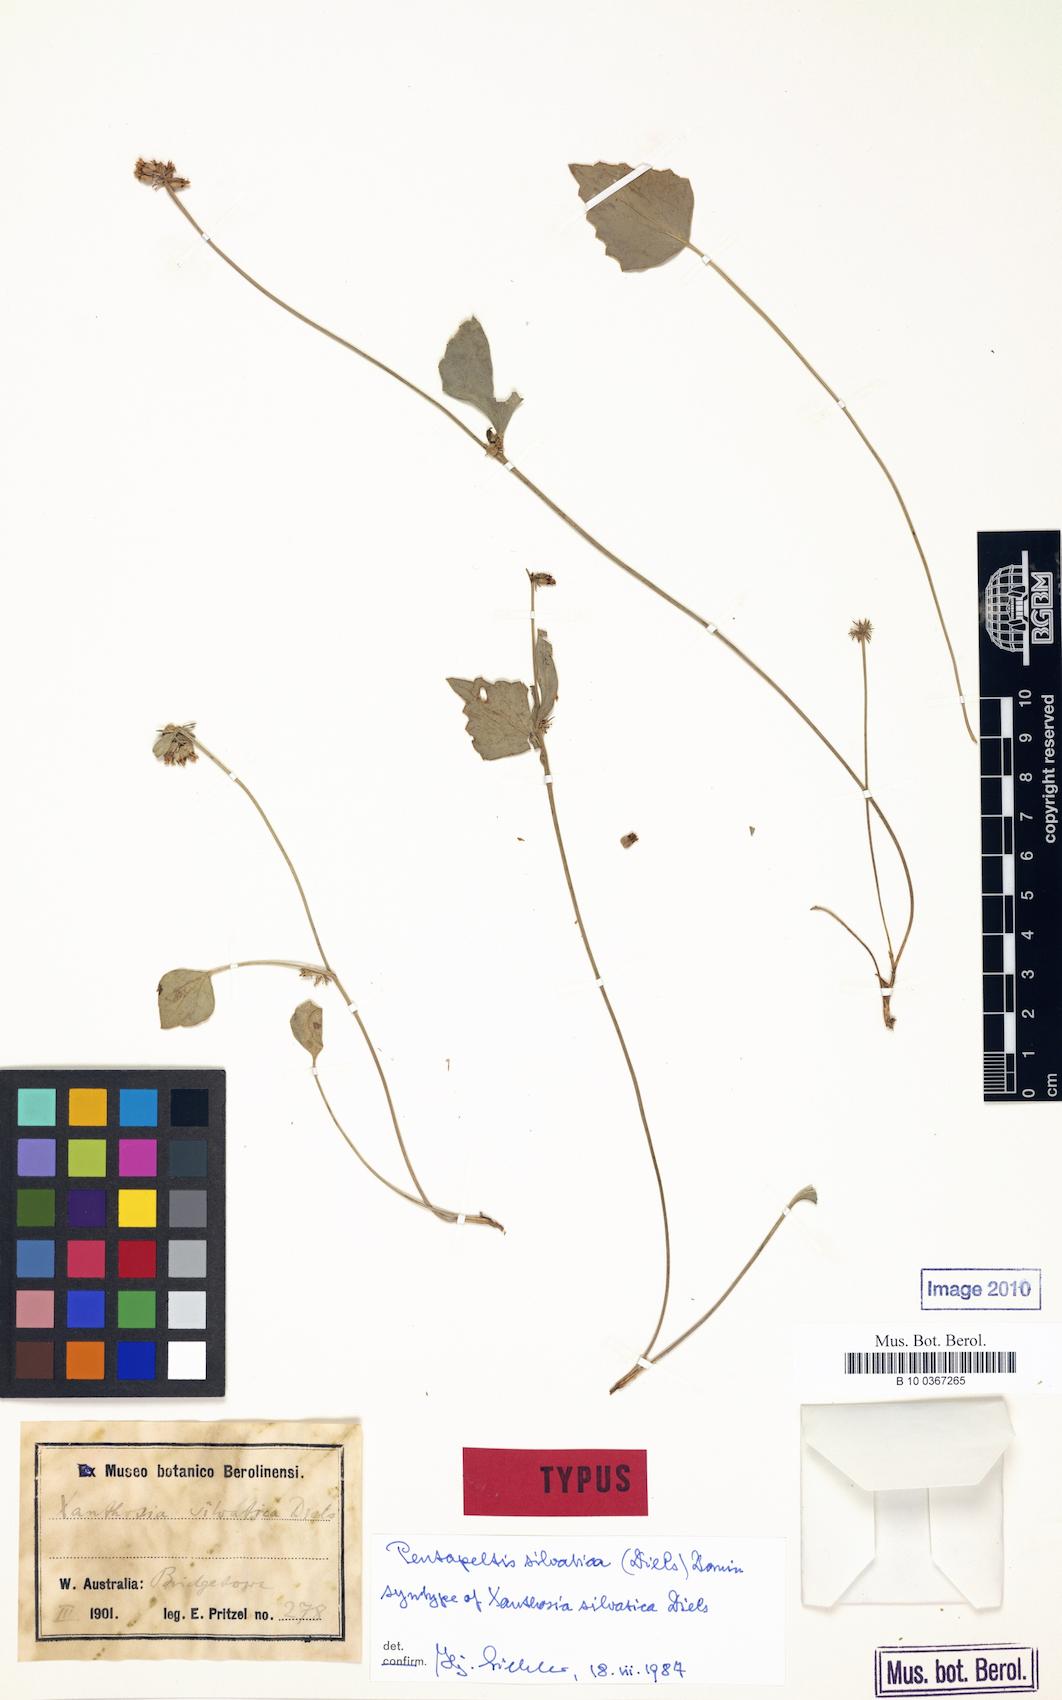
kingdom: Plantae
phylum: Tracheophyta
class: Magnoliopsida
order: Apiales
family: Apiaceae
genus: Pentapeltis
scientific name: Pentapeltis silvatica
